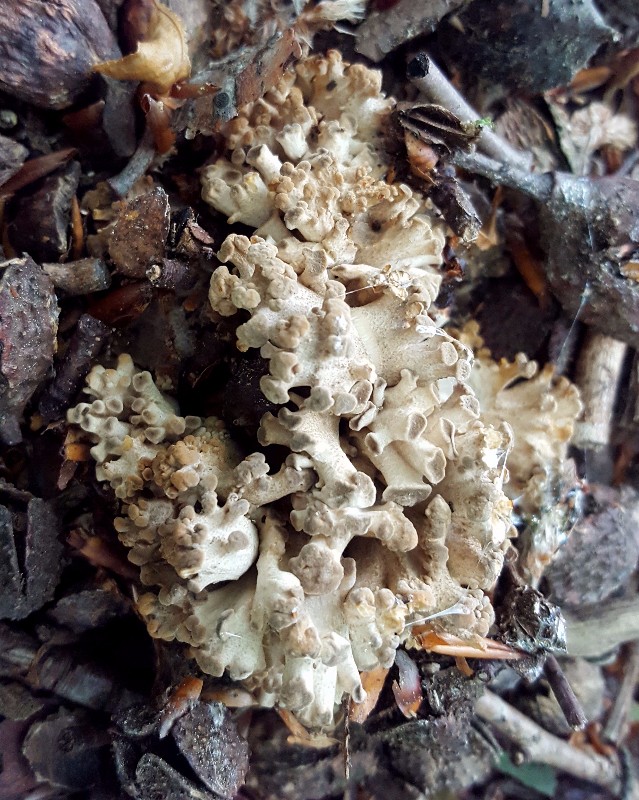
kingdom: Fungi
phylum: Basidiomycota
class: Agaricomycetes
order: Polyporales
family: Polyporaceae
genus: Polyporus
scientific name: Polyporus umbellatus
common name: skærmformet stilkporesvamp
